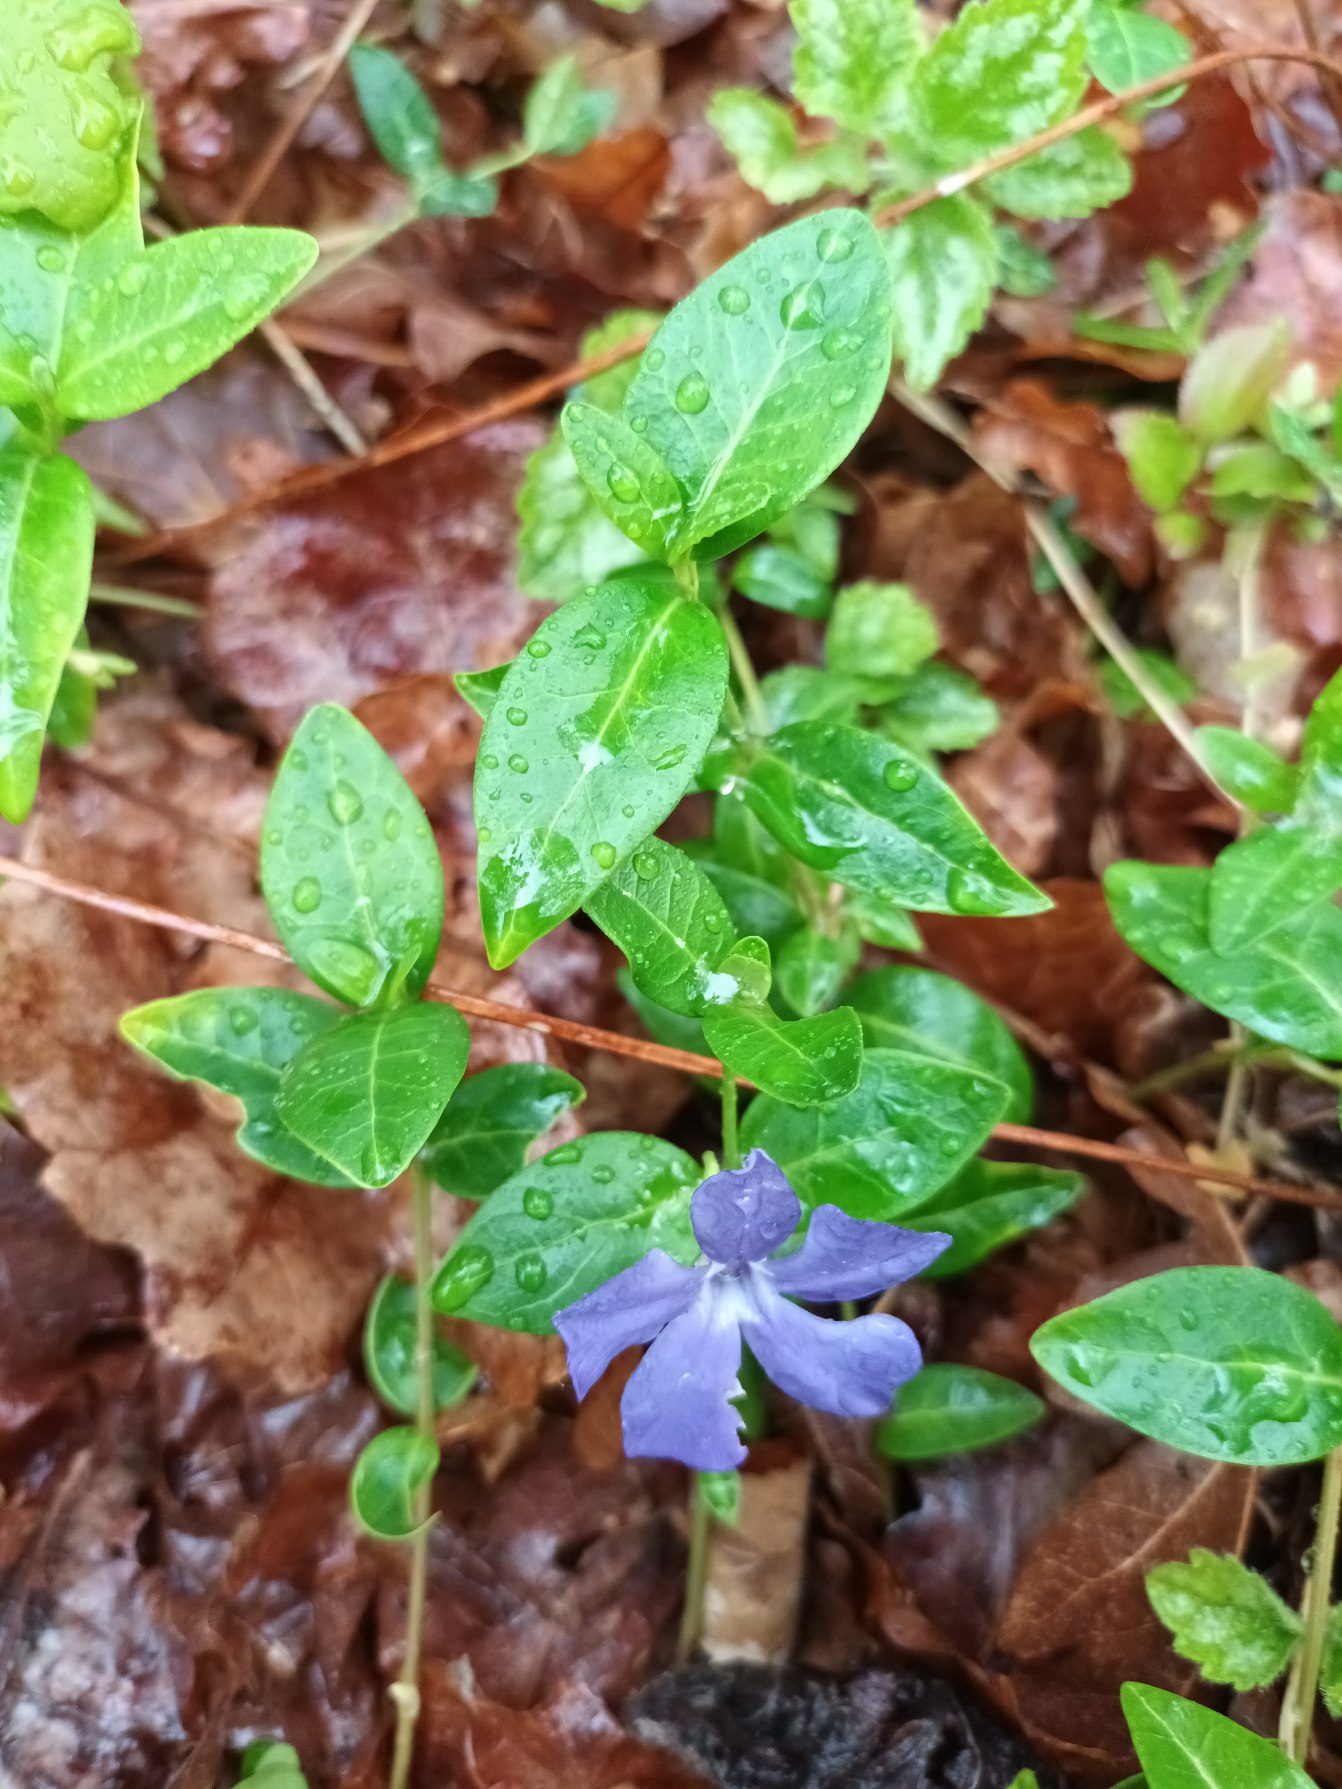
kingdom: Plantae
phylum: Tracheophyta
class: Magnoliopsida
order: Gentianales
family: Apocynaceae
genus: Vinca
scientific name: Vinca minor
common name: Liden singrøn
